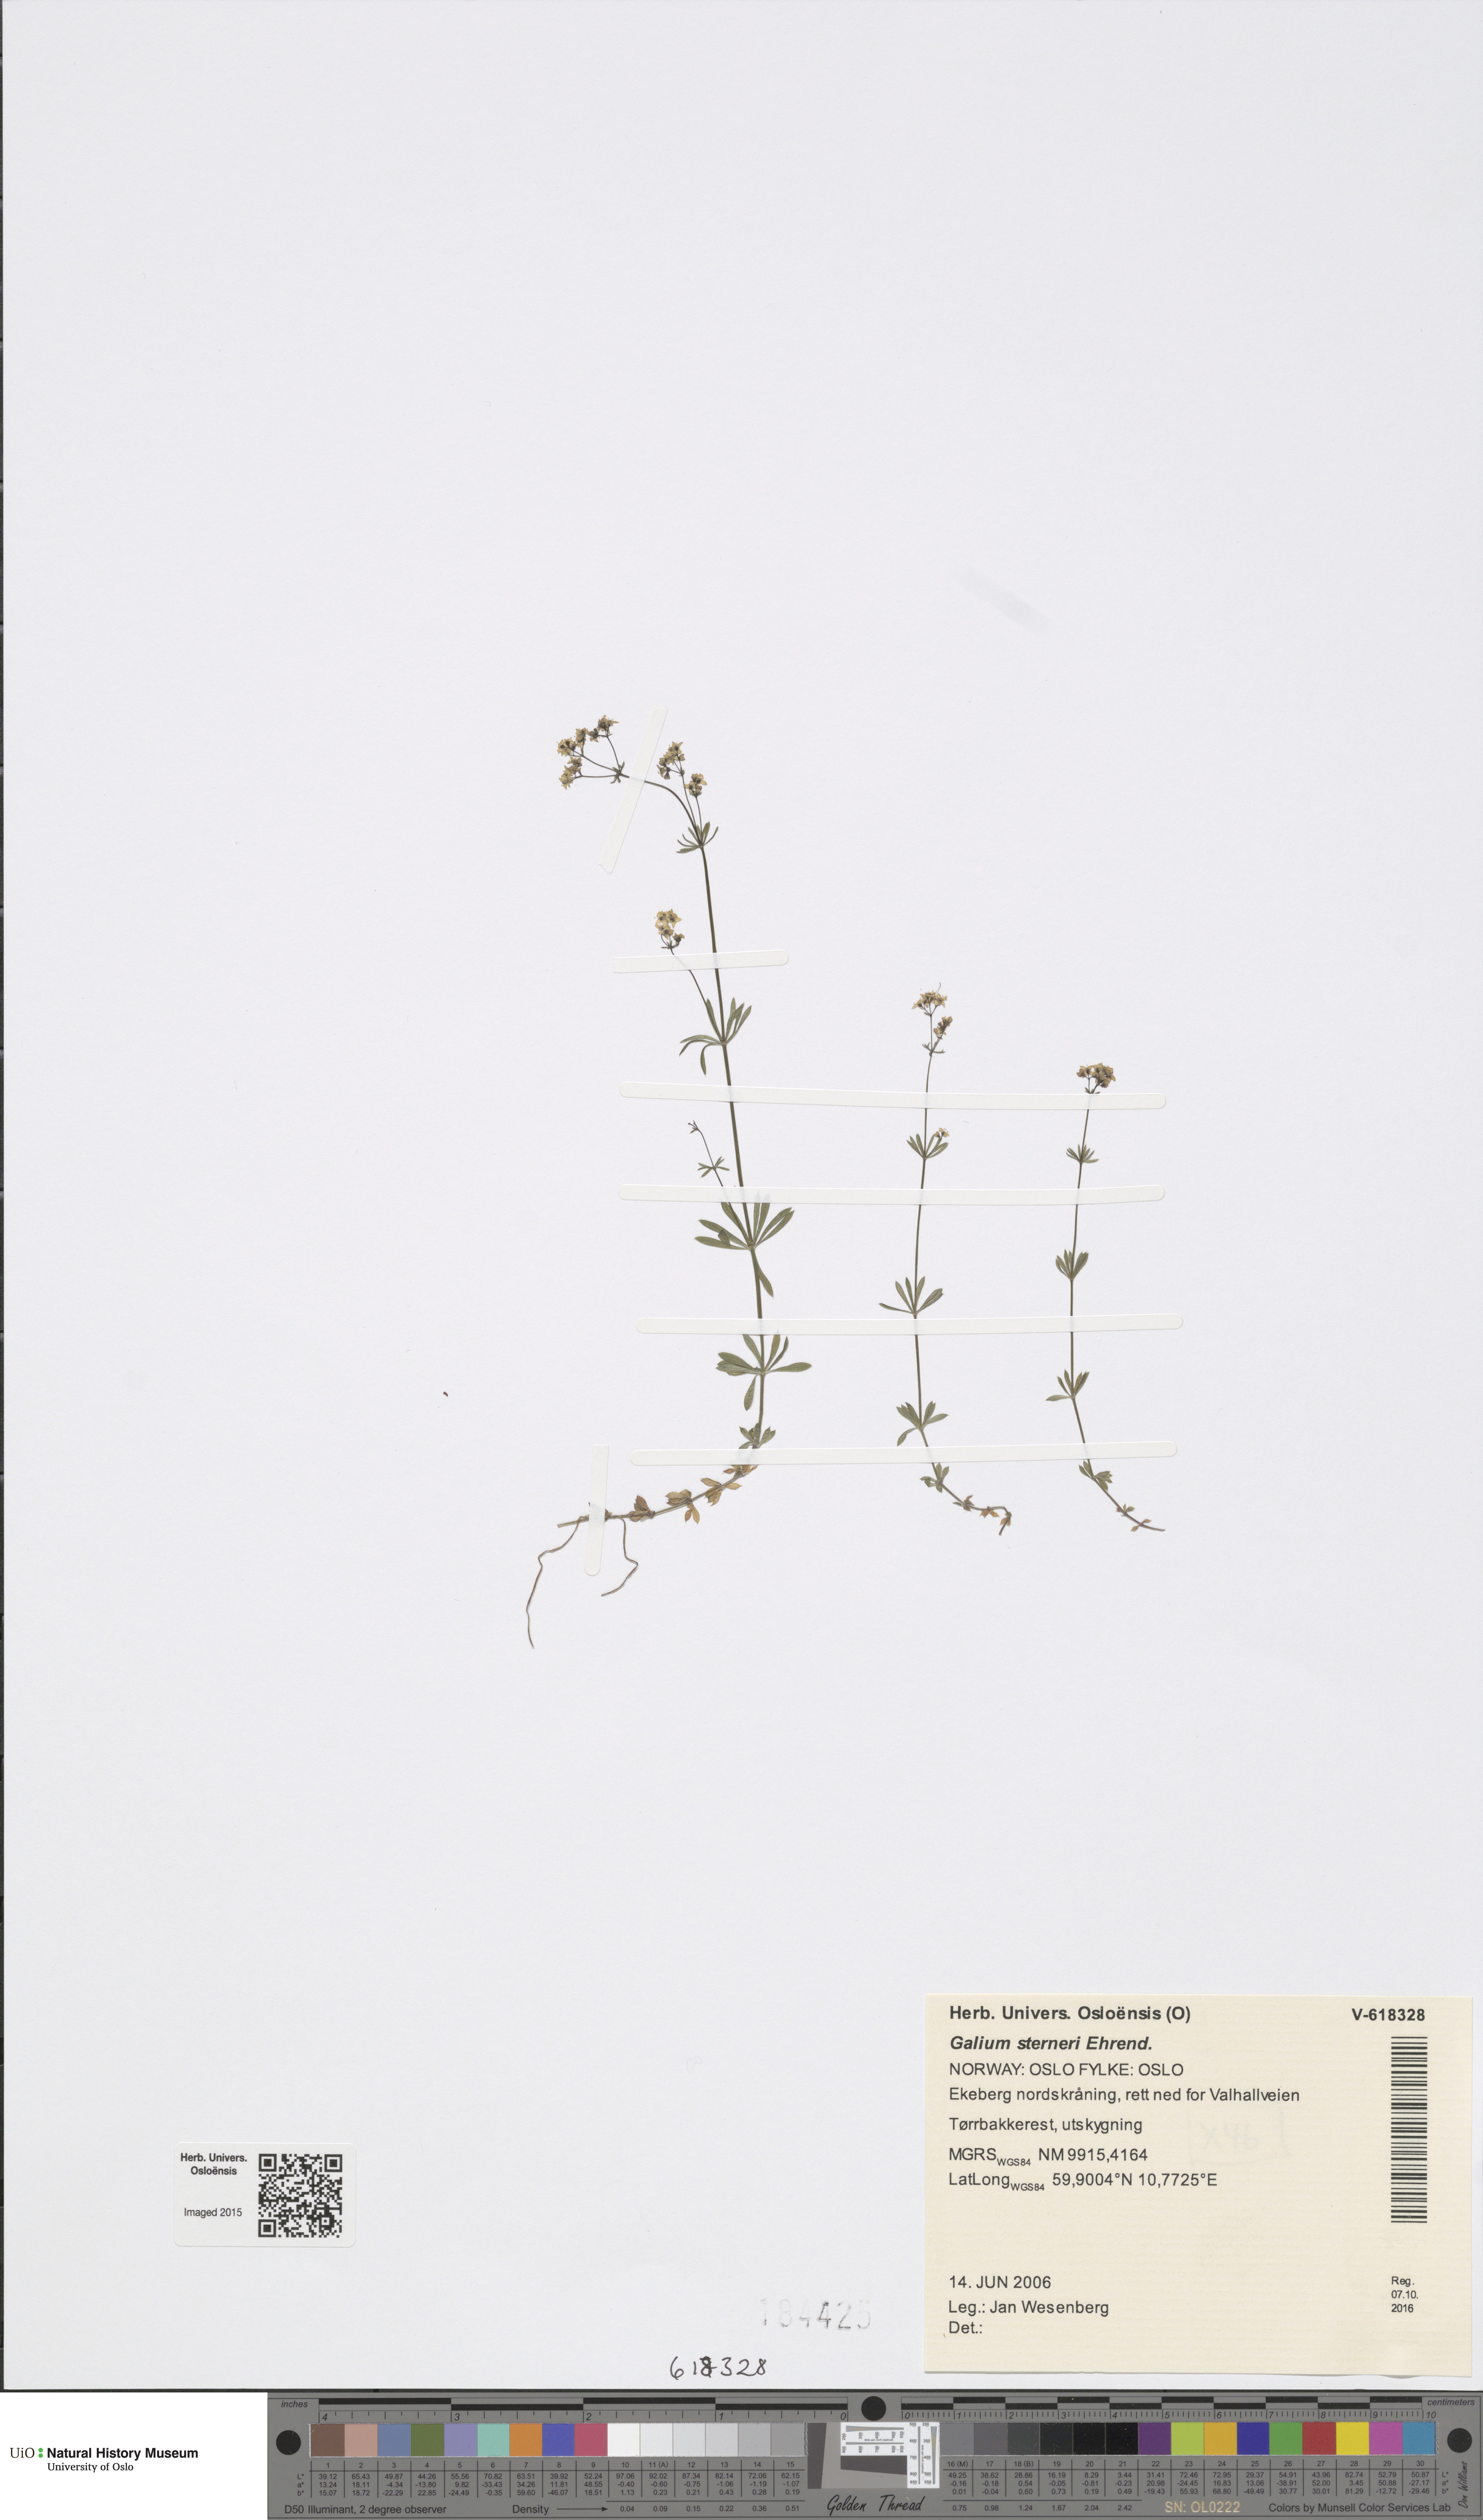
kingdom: Plantae
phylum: Tracheophyta
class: Magnoliopsida
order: Gentianales
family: Rubiaceae
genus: Galium
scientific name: Galium sterneri
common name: Limestone bedstraw
